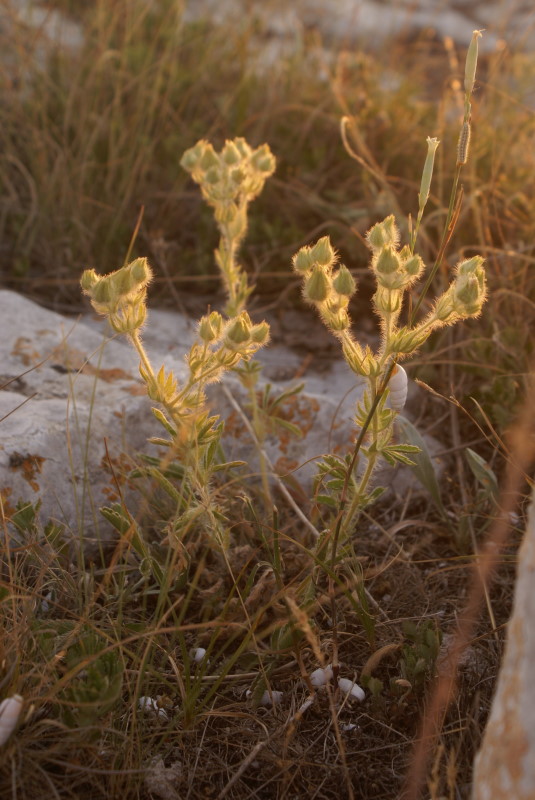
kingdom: Plantae
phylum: Tracheophyta
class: Magnoliopsida
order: Rosales
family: Rosaceae
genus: Potentilla
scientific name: Potentilla
